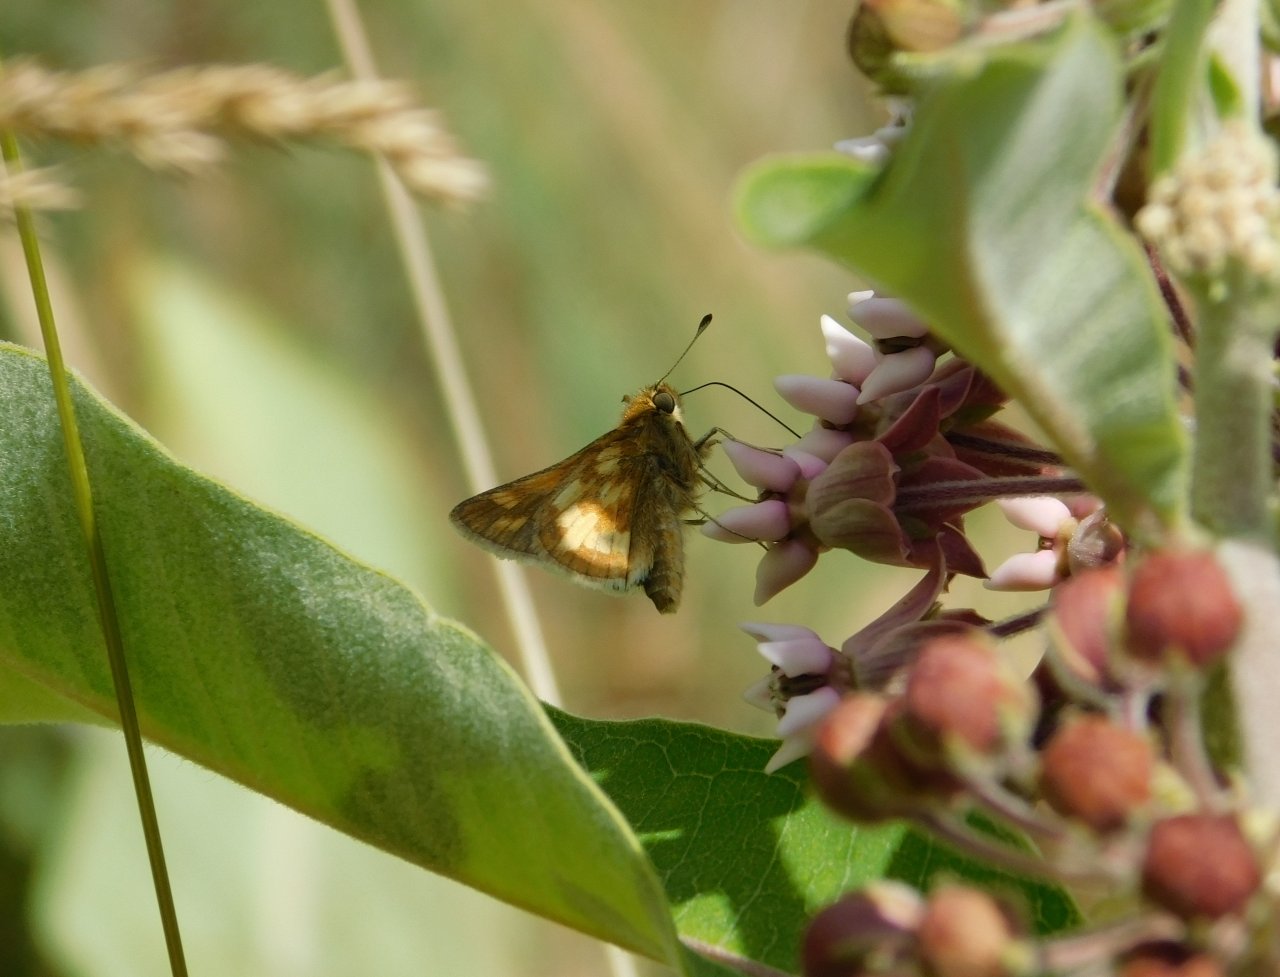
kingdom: Animalia
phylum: Arthropoda
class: Insecta
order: Lepidoptera
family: Hesperiidae
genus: Polites
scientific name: Polites coras
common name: Peck's Skipper
